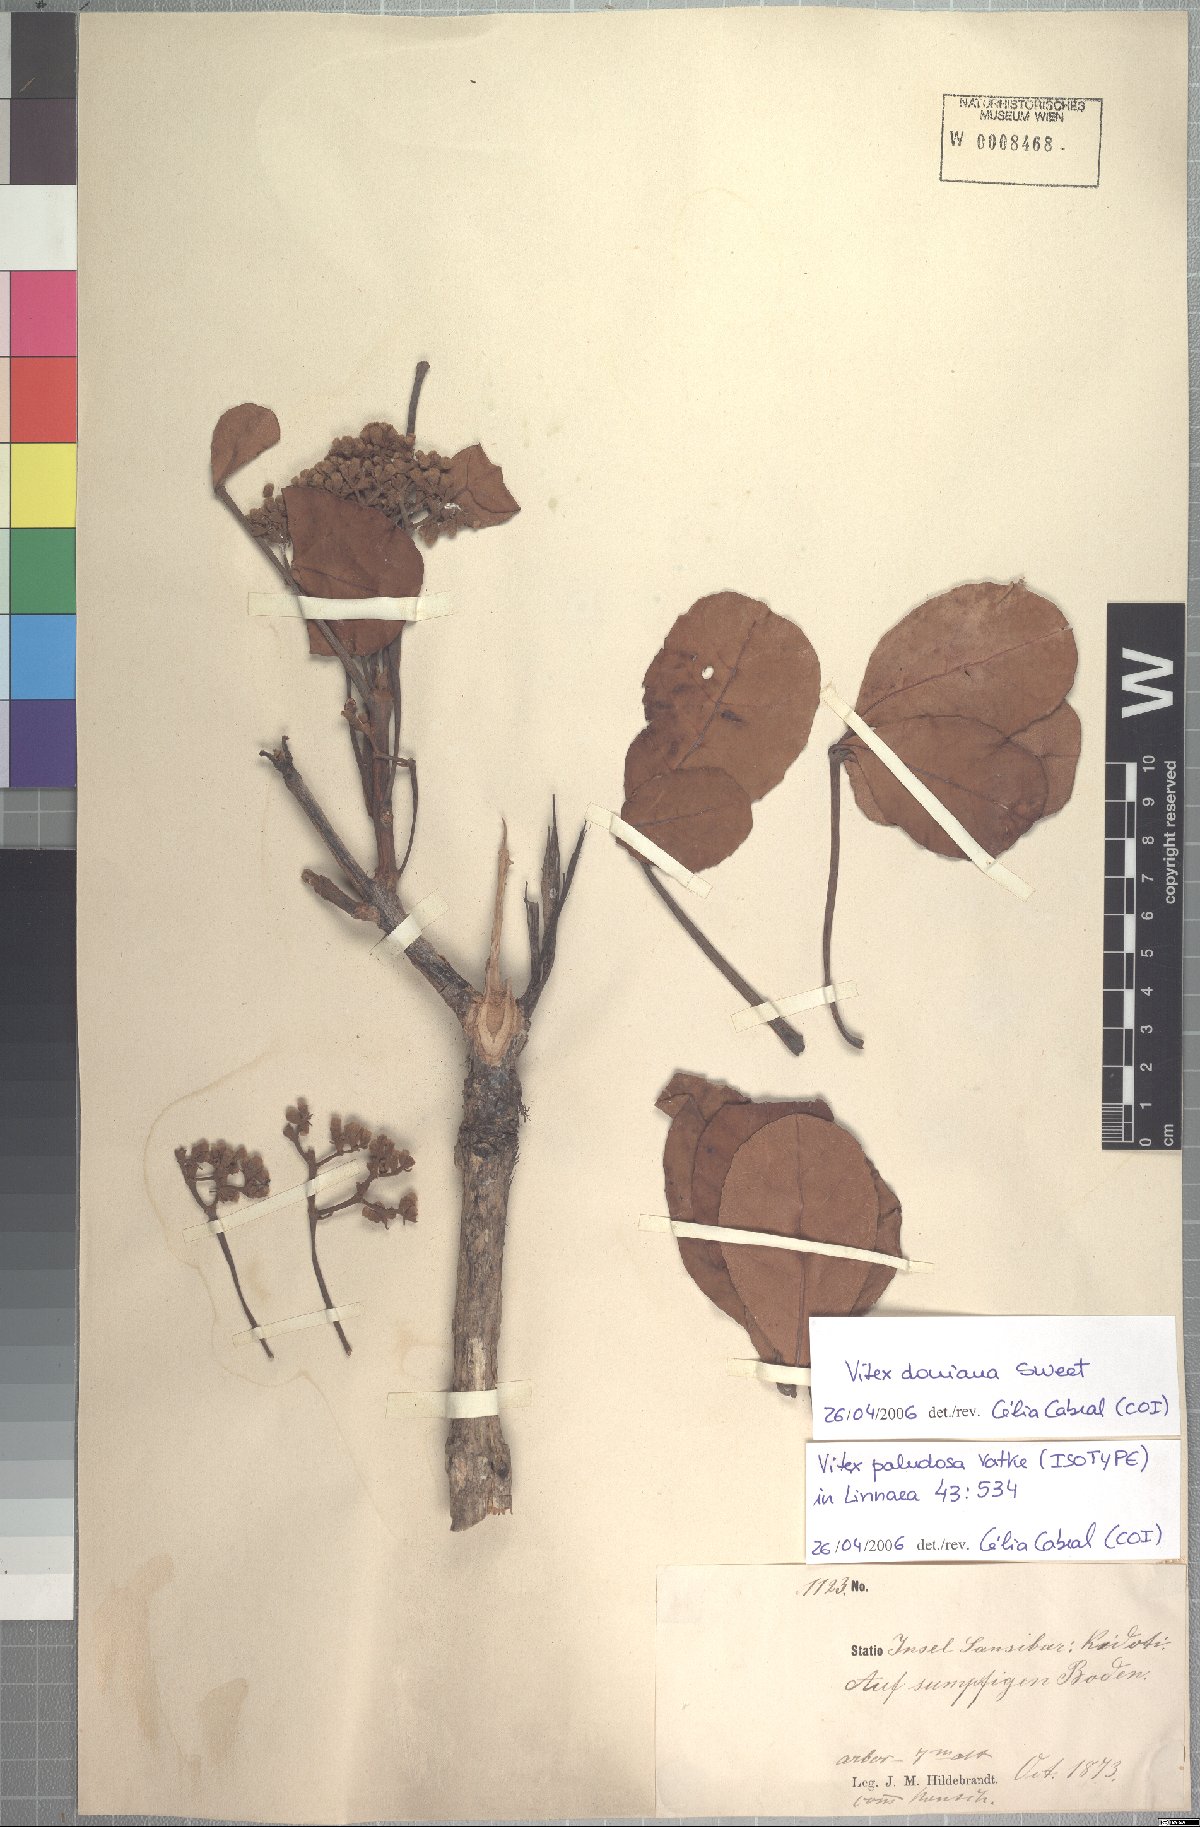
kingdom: Plantae
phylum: Tracheophyta
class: Magnoliopsida
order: Lamiales
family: Lamiaceae
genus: Vitex
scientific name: Vitex doniana
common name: Black plum
